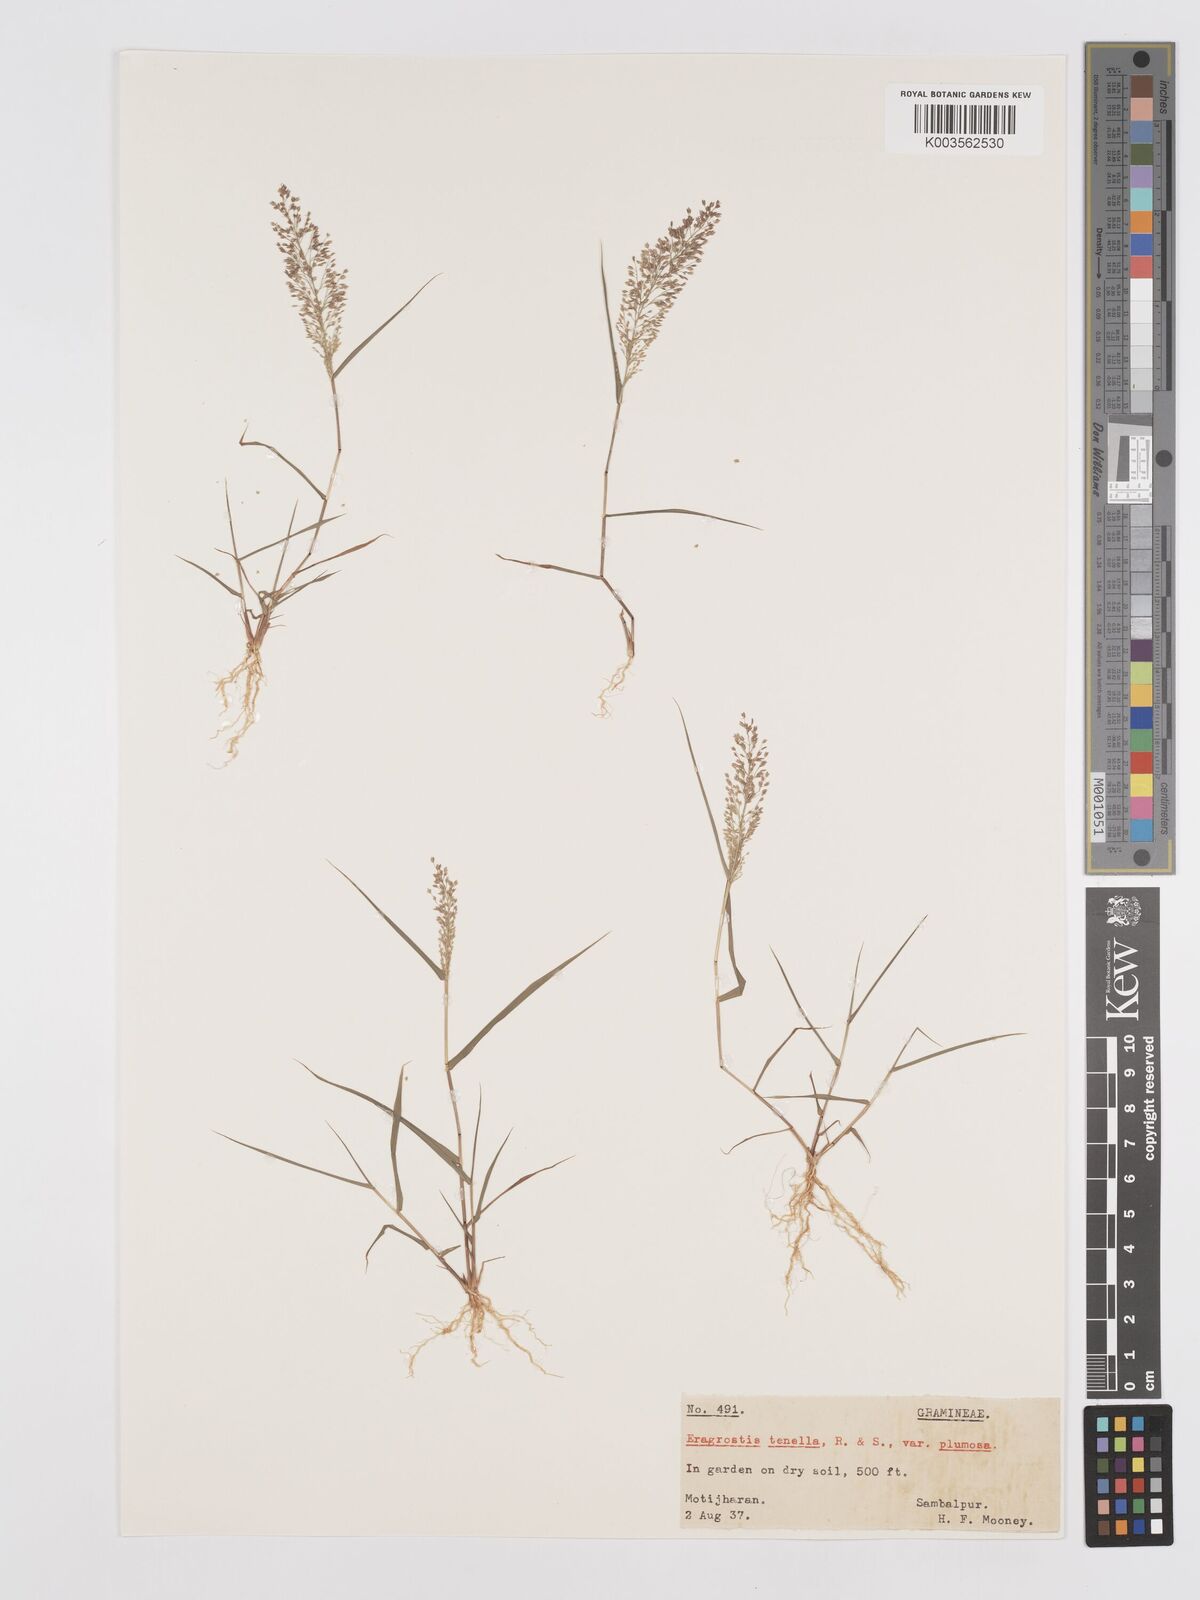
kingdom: Plantae
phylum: Tracheophyta
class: Liliopsida
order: Poales
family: Poaceae
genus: Eragrostis
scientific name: Eragrostis tenella
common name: Japanese lovegrass
